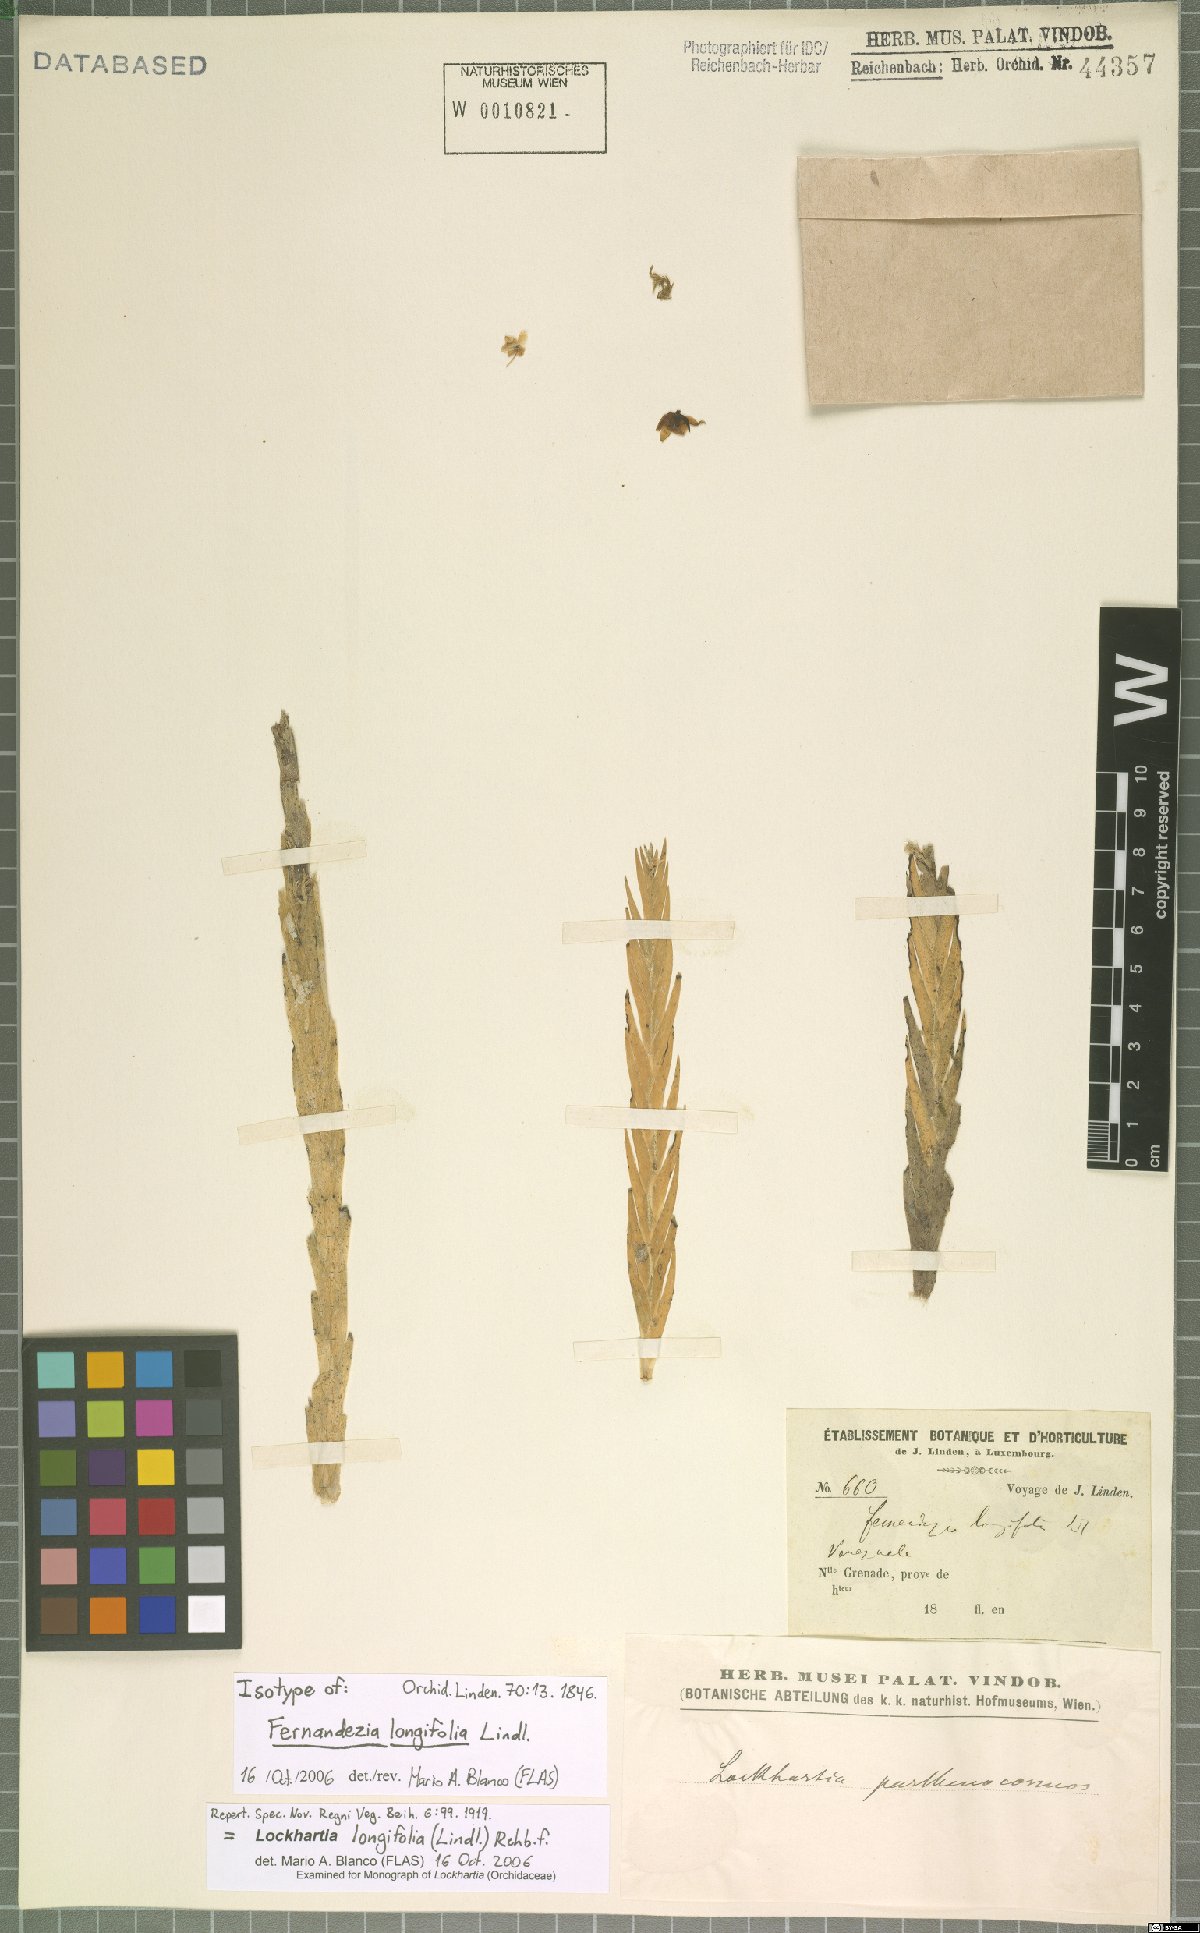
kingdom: Plantae
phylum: Tracheophyta
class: Liliopsida
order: Asparagales
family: Orchidaceae
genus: Lockhartia
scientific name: Lockhartia parthenocomos
